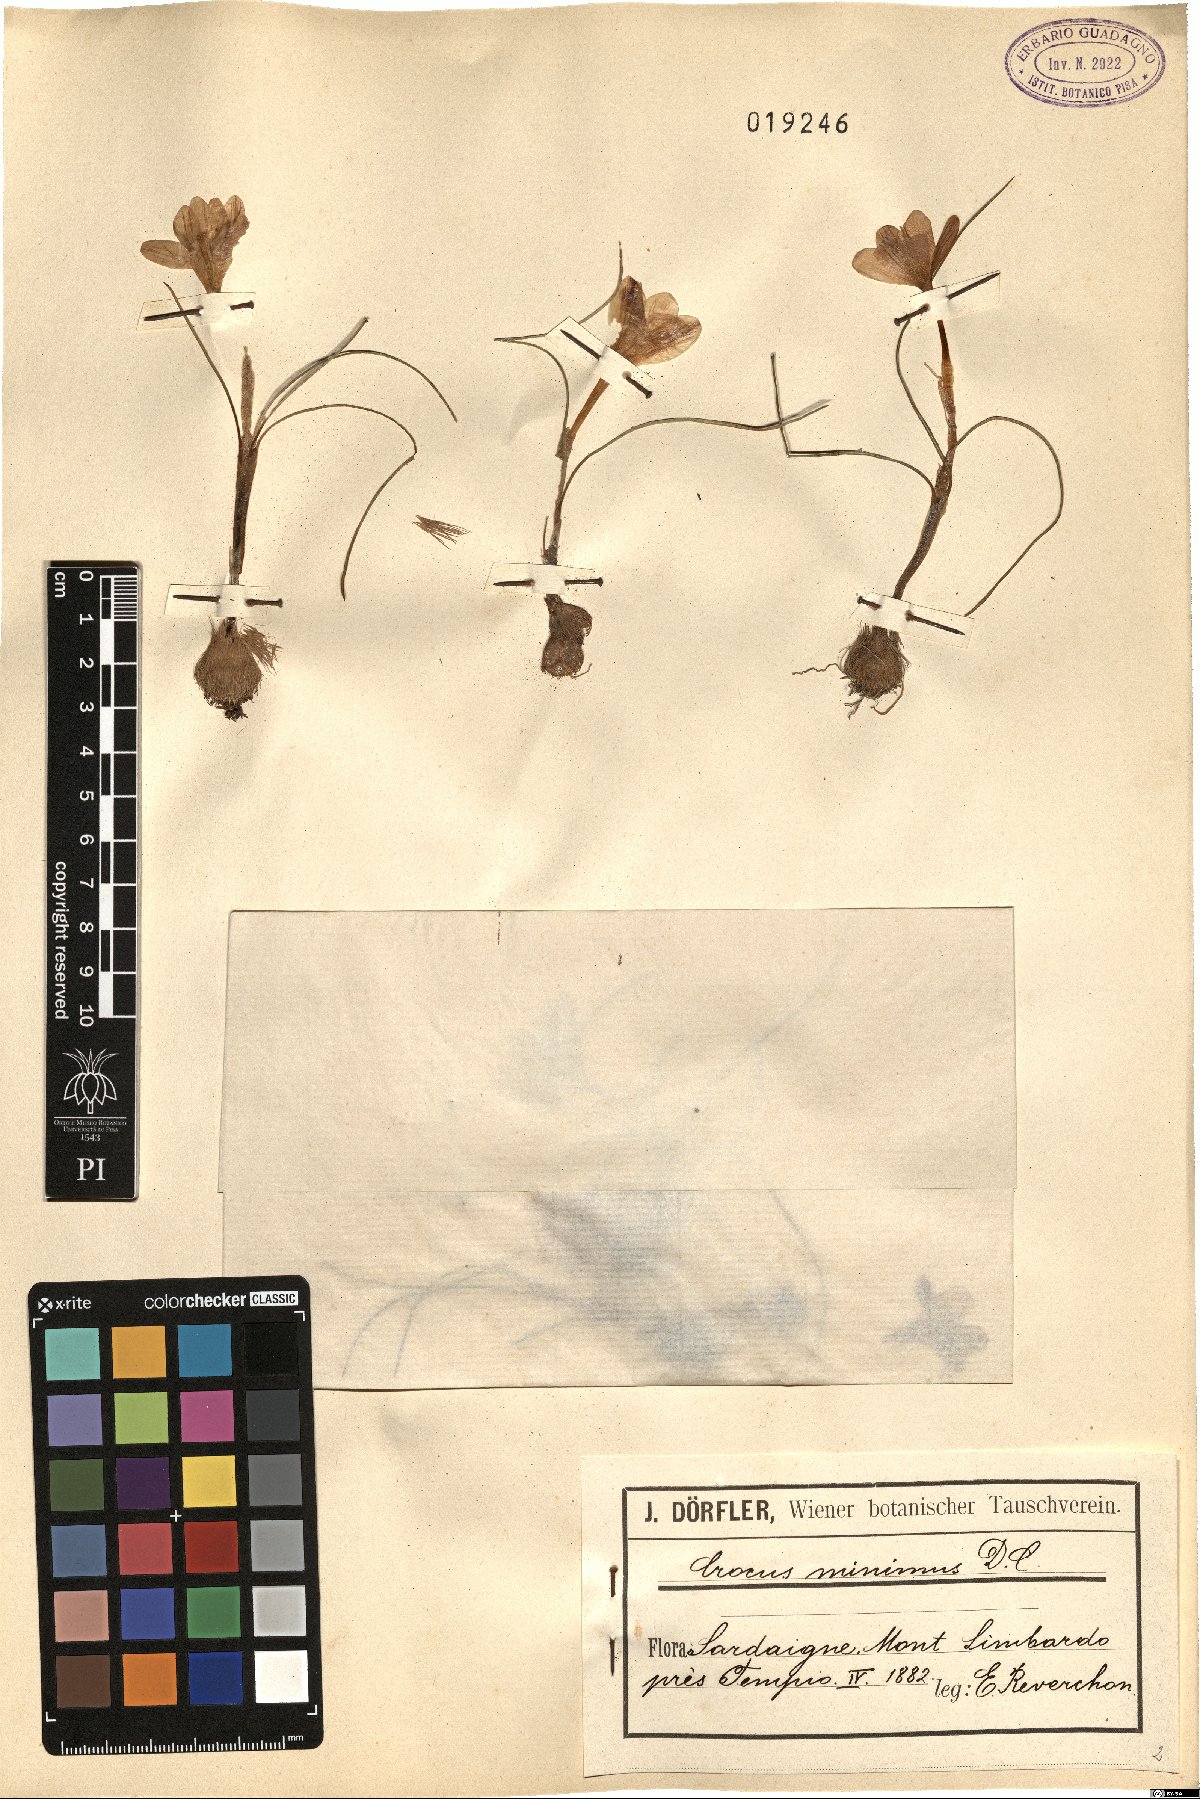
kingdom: Plantae
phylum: Tracheophyta
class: Liliopsida
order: Asparagales
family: Iridaceae
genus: Crocus
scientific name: Crocus minimus
